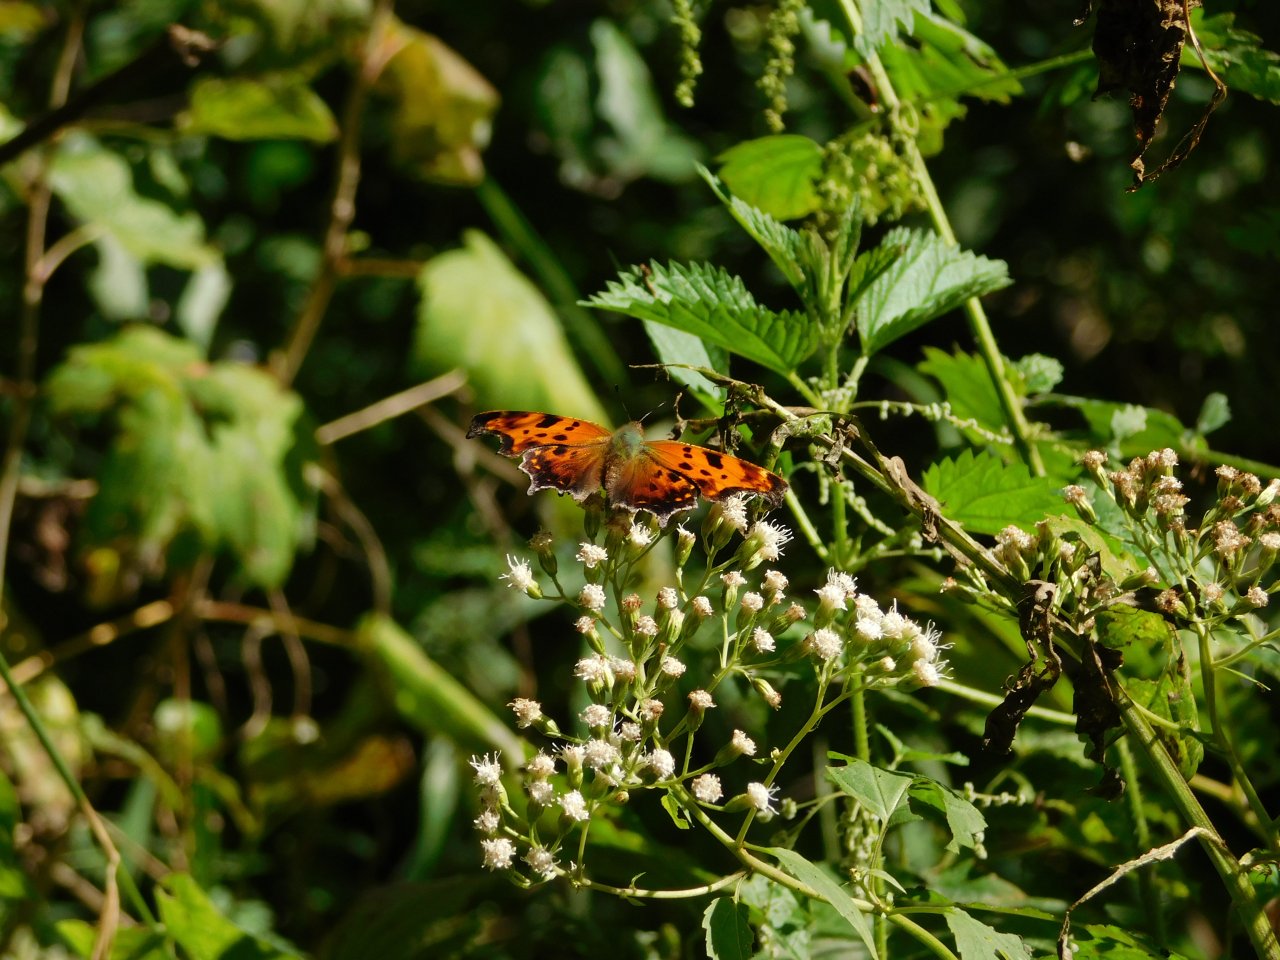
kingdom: Animalia
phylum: Arthropoda
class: Insecta
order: Lepidoptera
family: Nymphalidae
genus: Polygonia
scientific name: Polygonia comma
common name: Eastern Comma
